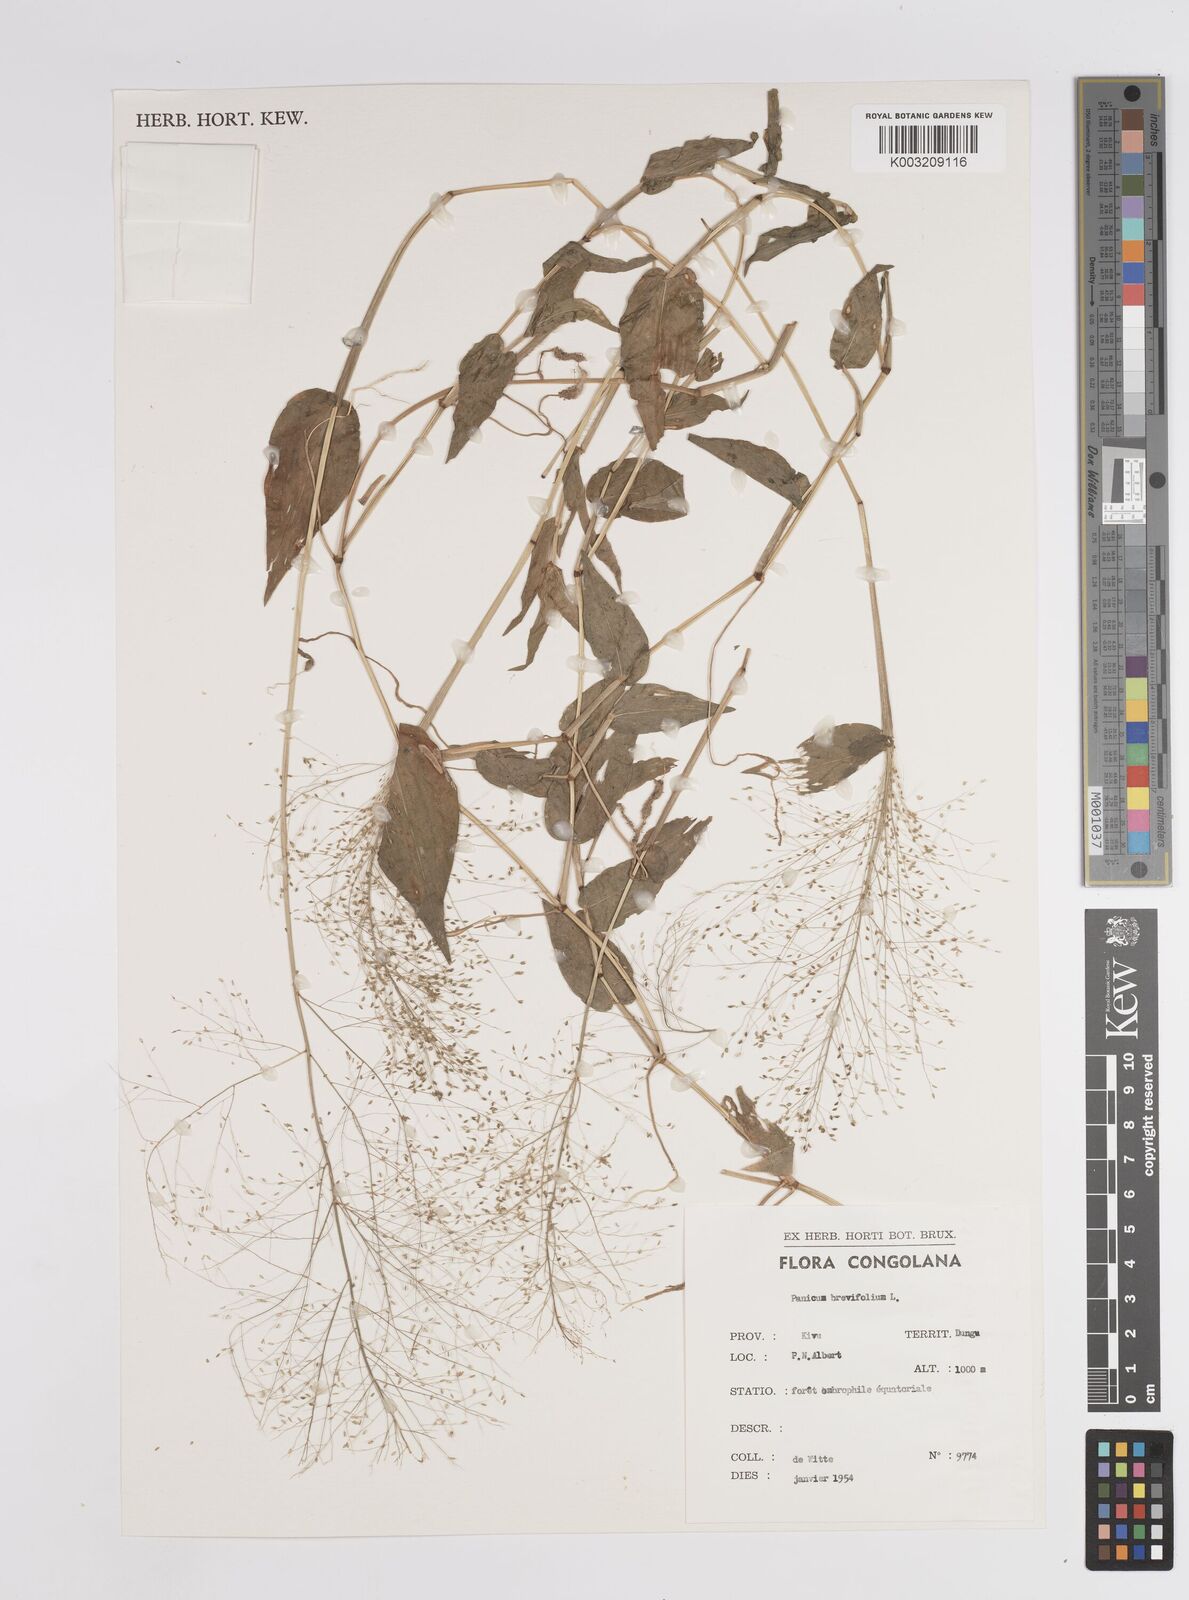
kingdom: Plantae
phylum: Tracheophyta
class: Liliopsida
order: Poales
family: Poaceae
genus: Panicum
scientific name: Panicum brevifolium
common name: Shortleaf panic grass
